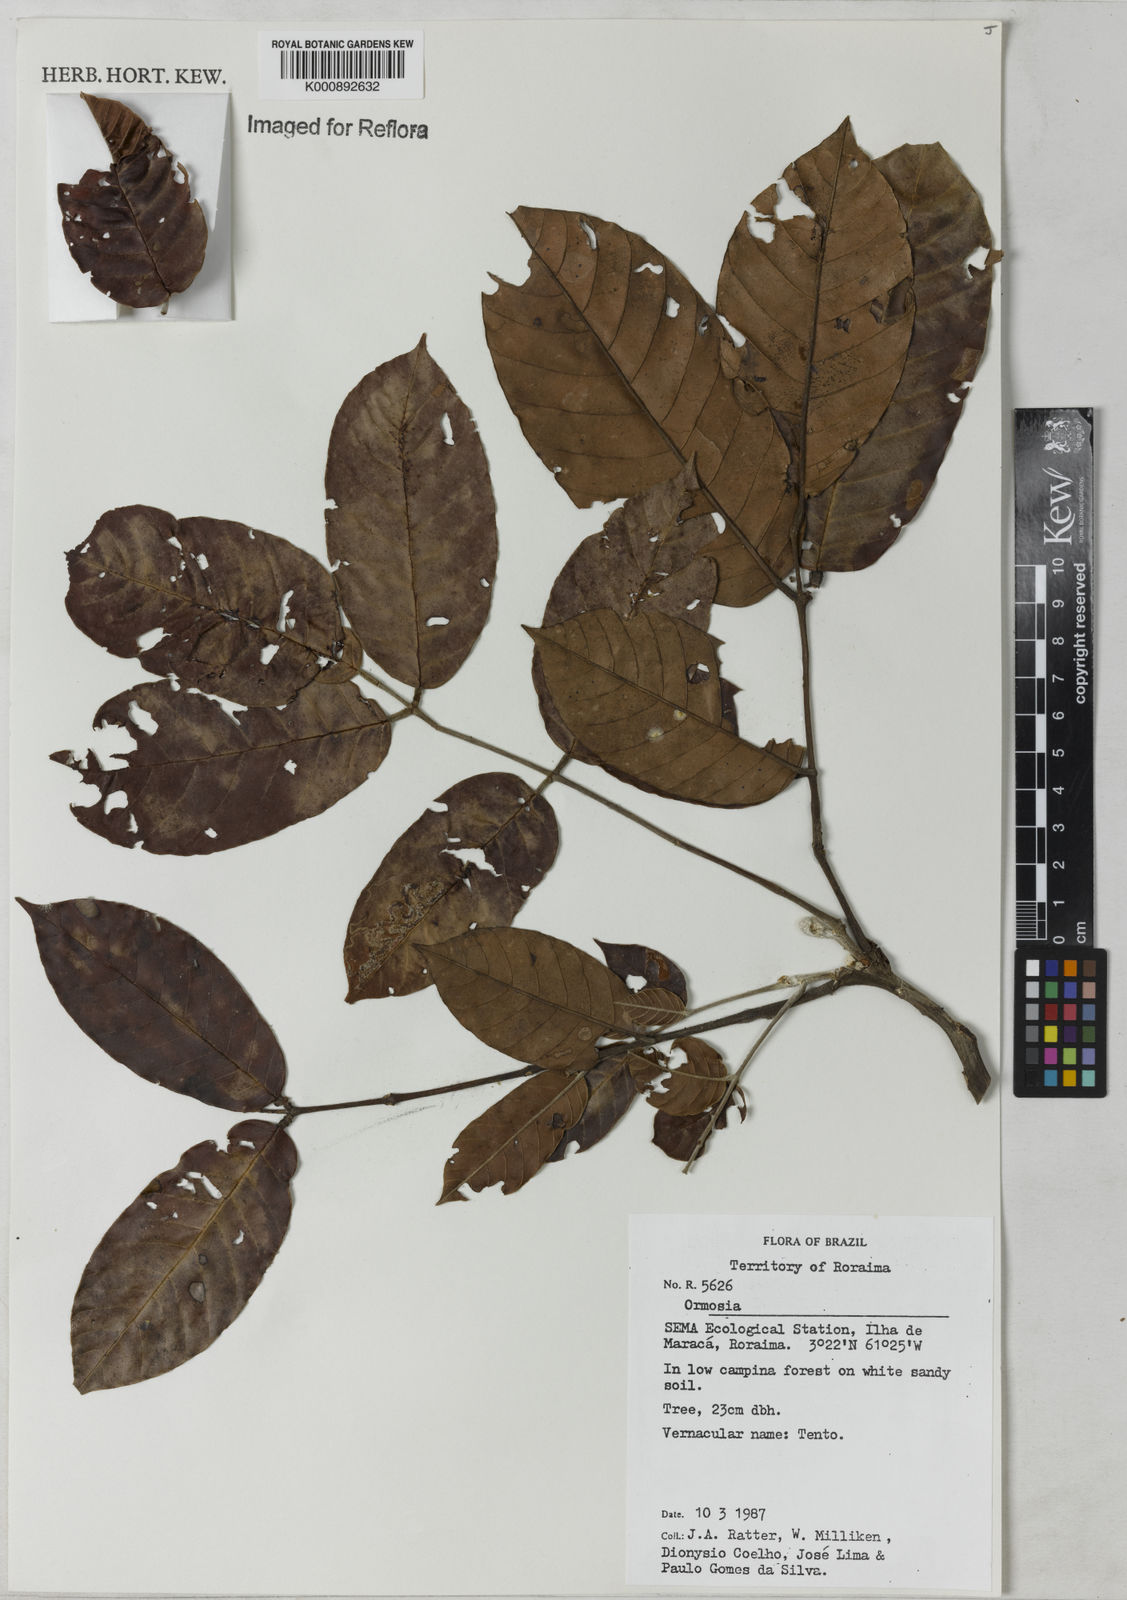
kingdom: Plantae
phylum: Tracheophyta
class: Magnoliopsida
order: Fabales
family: Fabaceae
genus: Ormosia
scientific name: Ormosia
